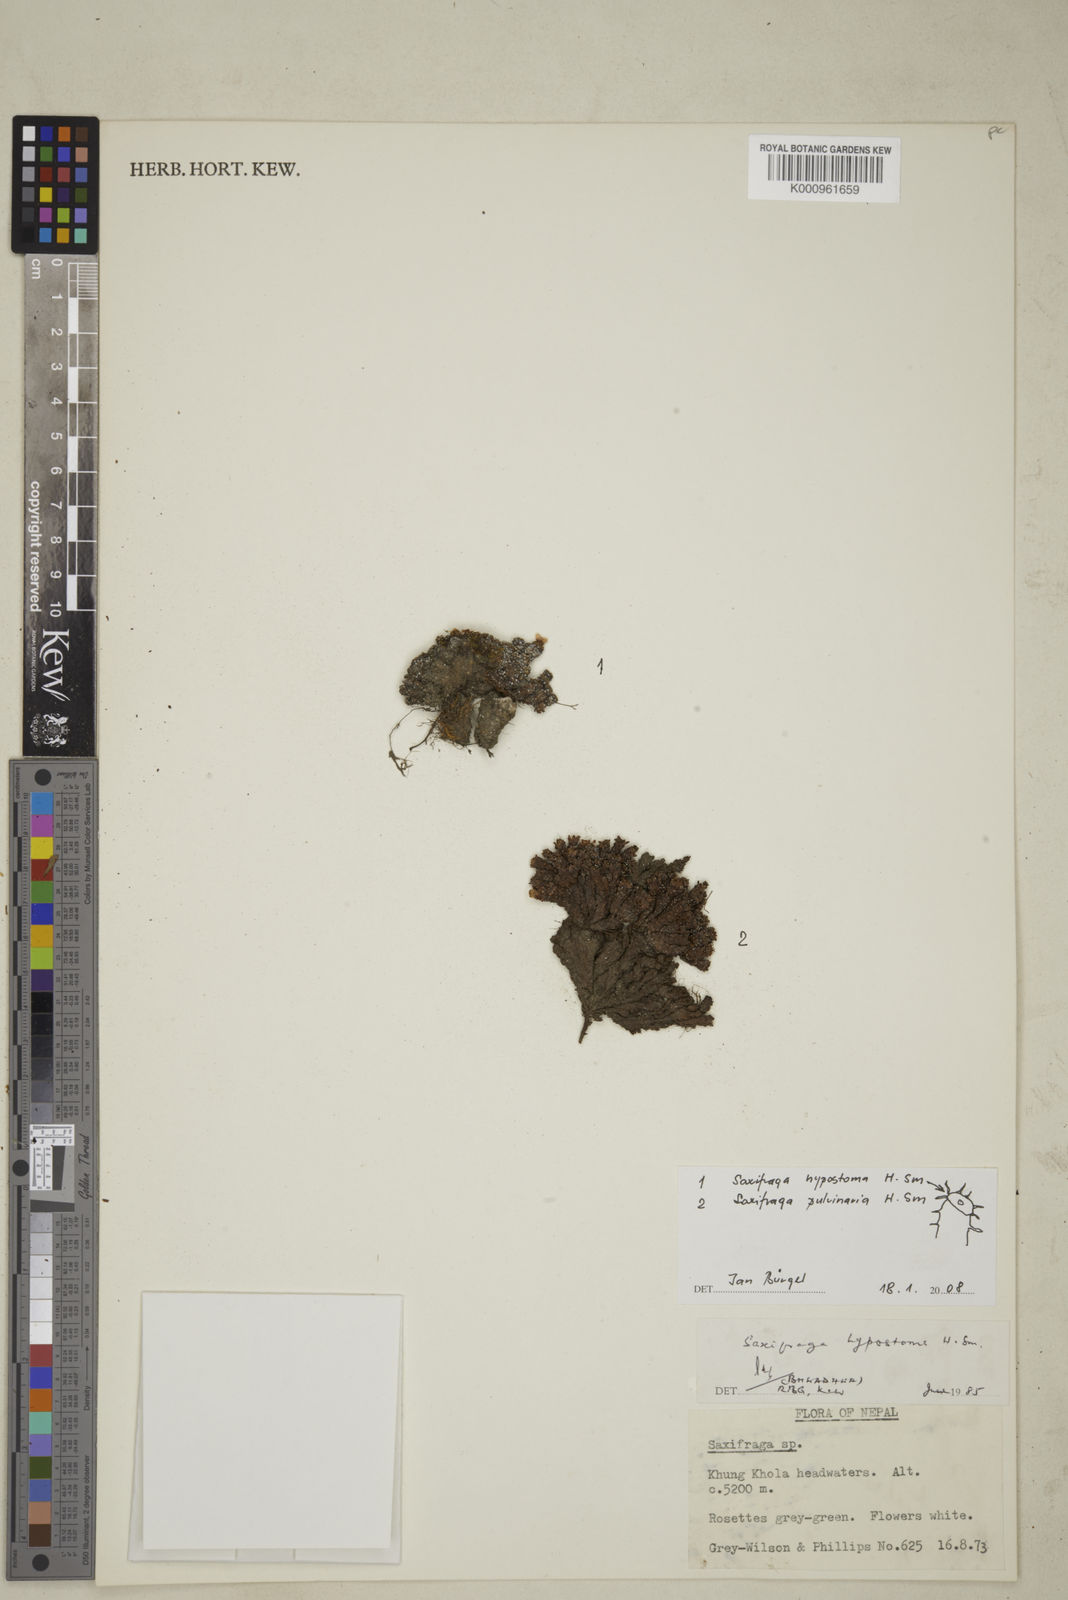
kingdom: Plantae
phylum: Tracheophyta
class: Magnoliopsida
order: Saxifragales
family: Saxifragaceae
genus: Saxifraga
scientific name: Saxifraga hypostoma
